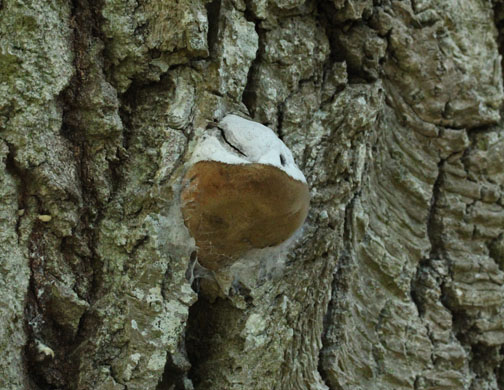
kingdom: Fungi
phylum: Basidiomycota
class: Agaricomycetes
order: Hymenochaetales
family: Hymenochaetaceae
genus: Phellinus
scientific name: Phellinus populicola
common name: poppel-ildporesvamp
